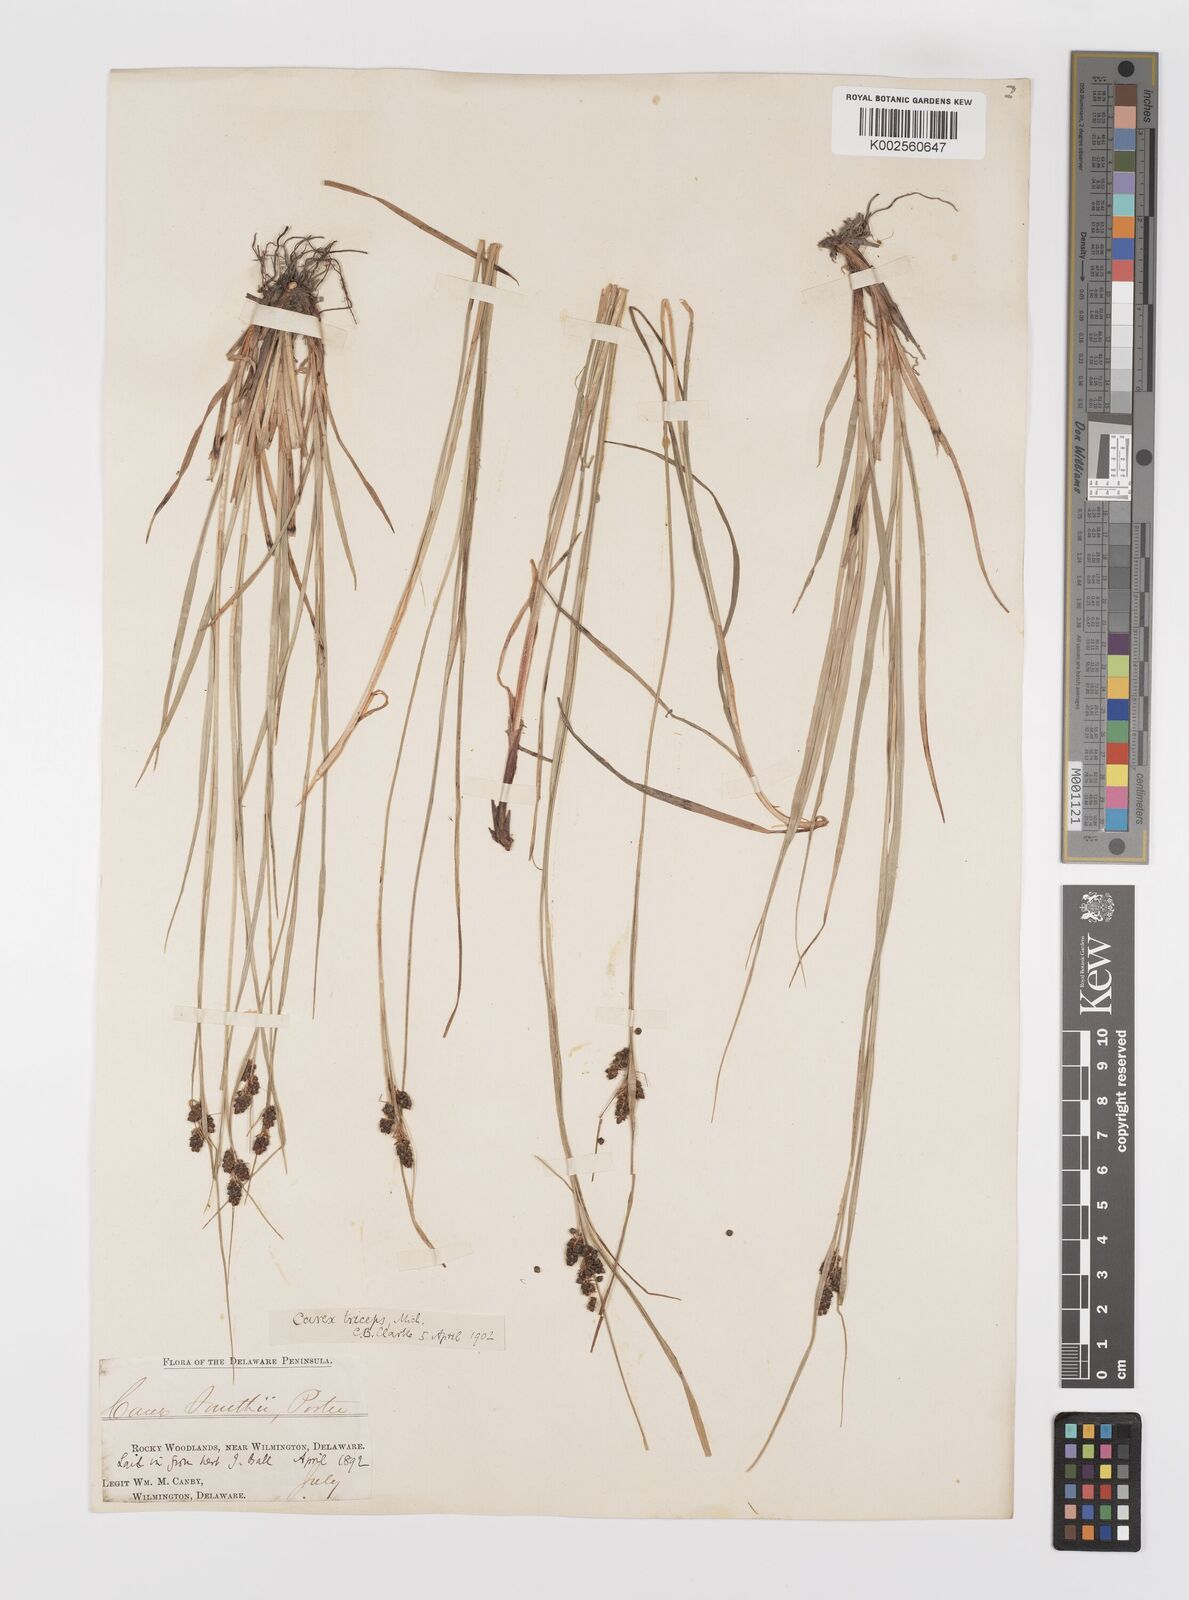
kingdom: Plantae
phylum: Tracheophyta
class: Liliopsida
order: Poales
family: Cyperaceae
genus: Carex
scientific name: Carex caroliniana
